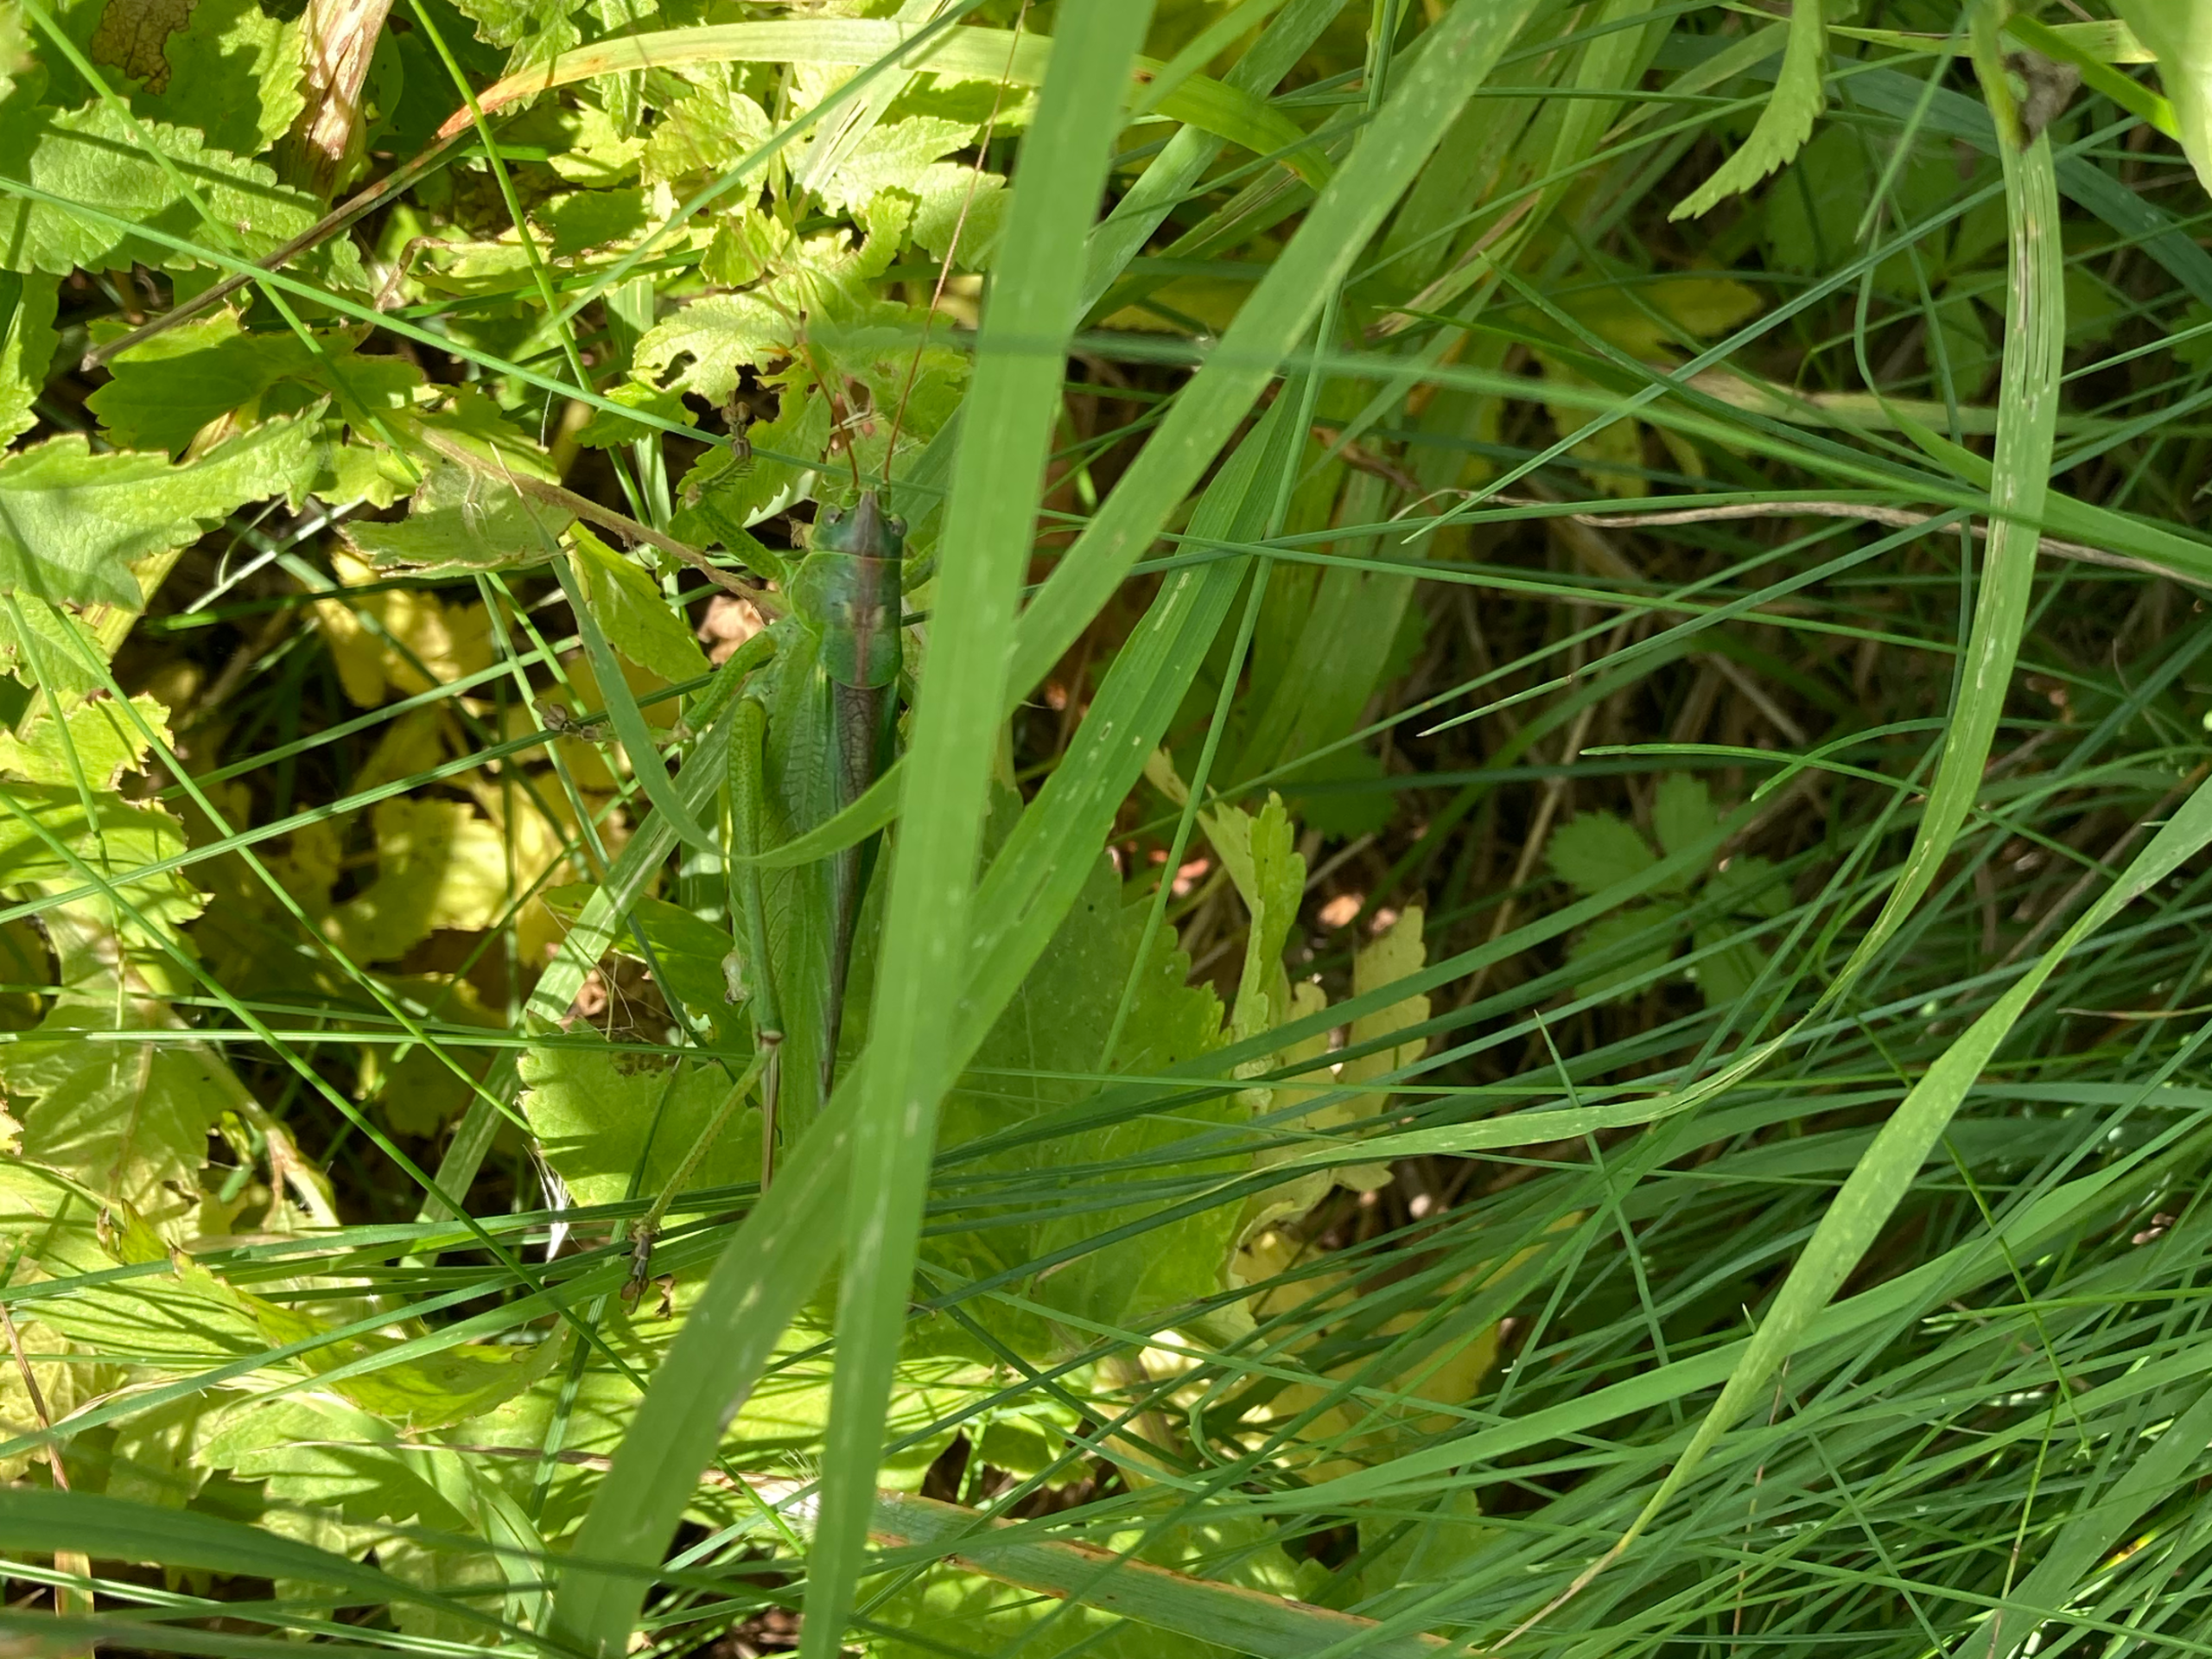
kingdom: Animalia
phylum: Arthropoda
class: Insecta
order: Orthoptera
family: Tettigoniidae
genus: Tettigonia
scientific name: Tettigonia viridissima
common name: Stor grøn løvgræshoppe
